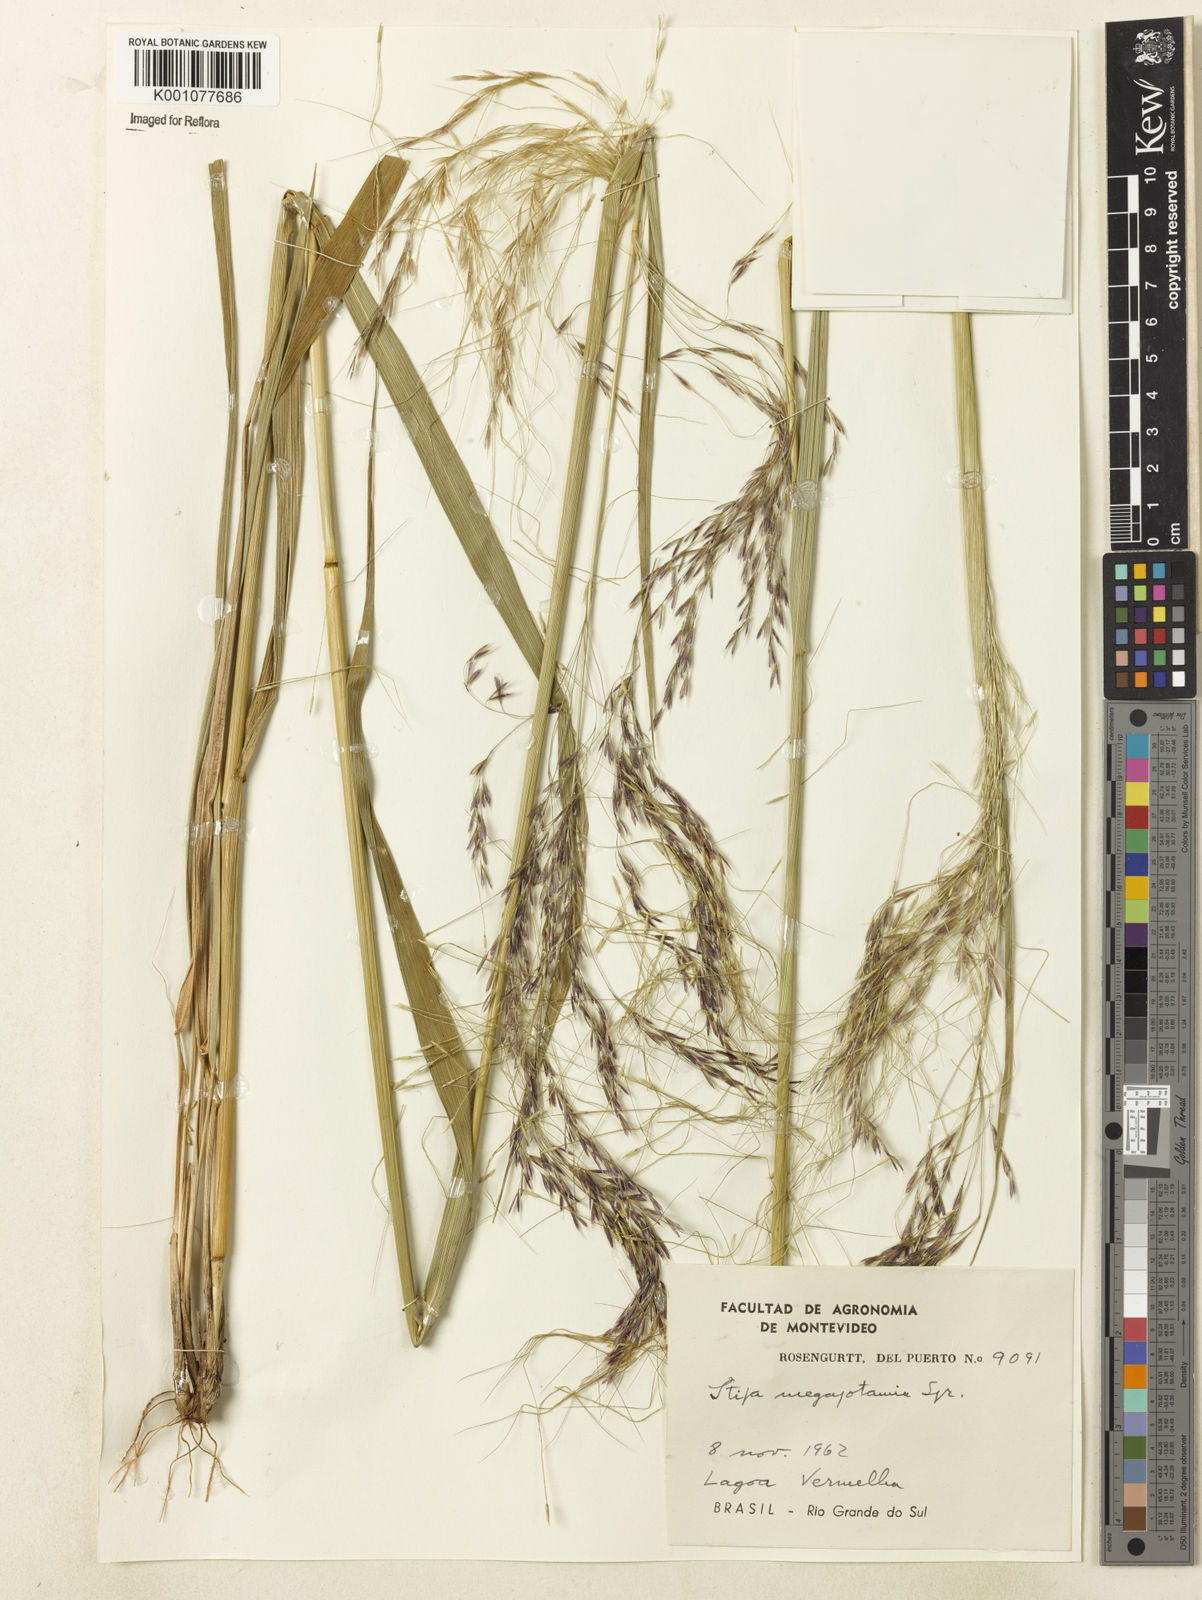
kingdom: Plantae
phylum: Tracheophyta
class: Liliopsida
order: Poales
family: Poaceae
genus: Jarava
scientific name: Jarava filifolia
